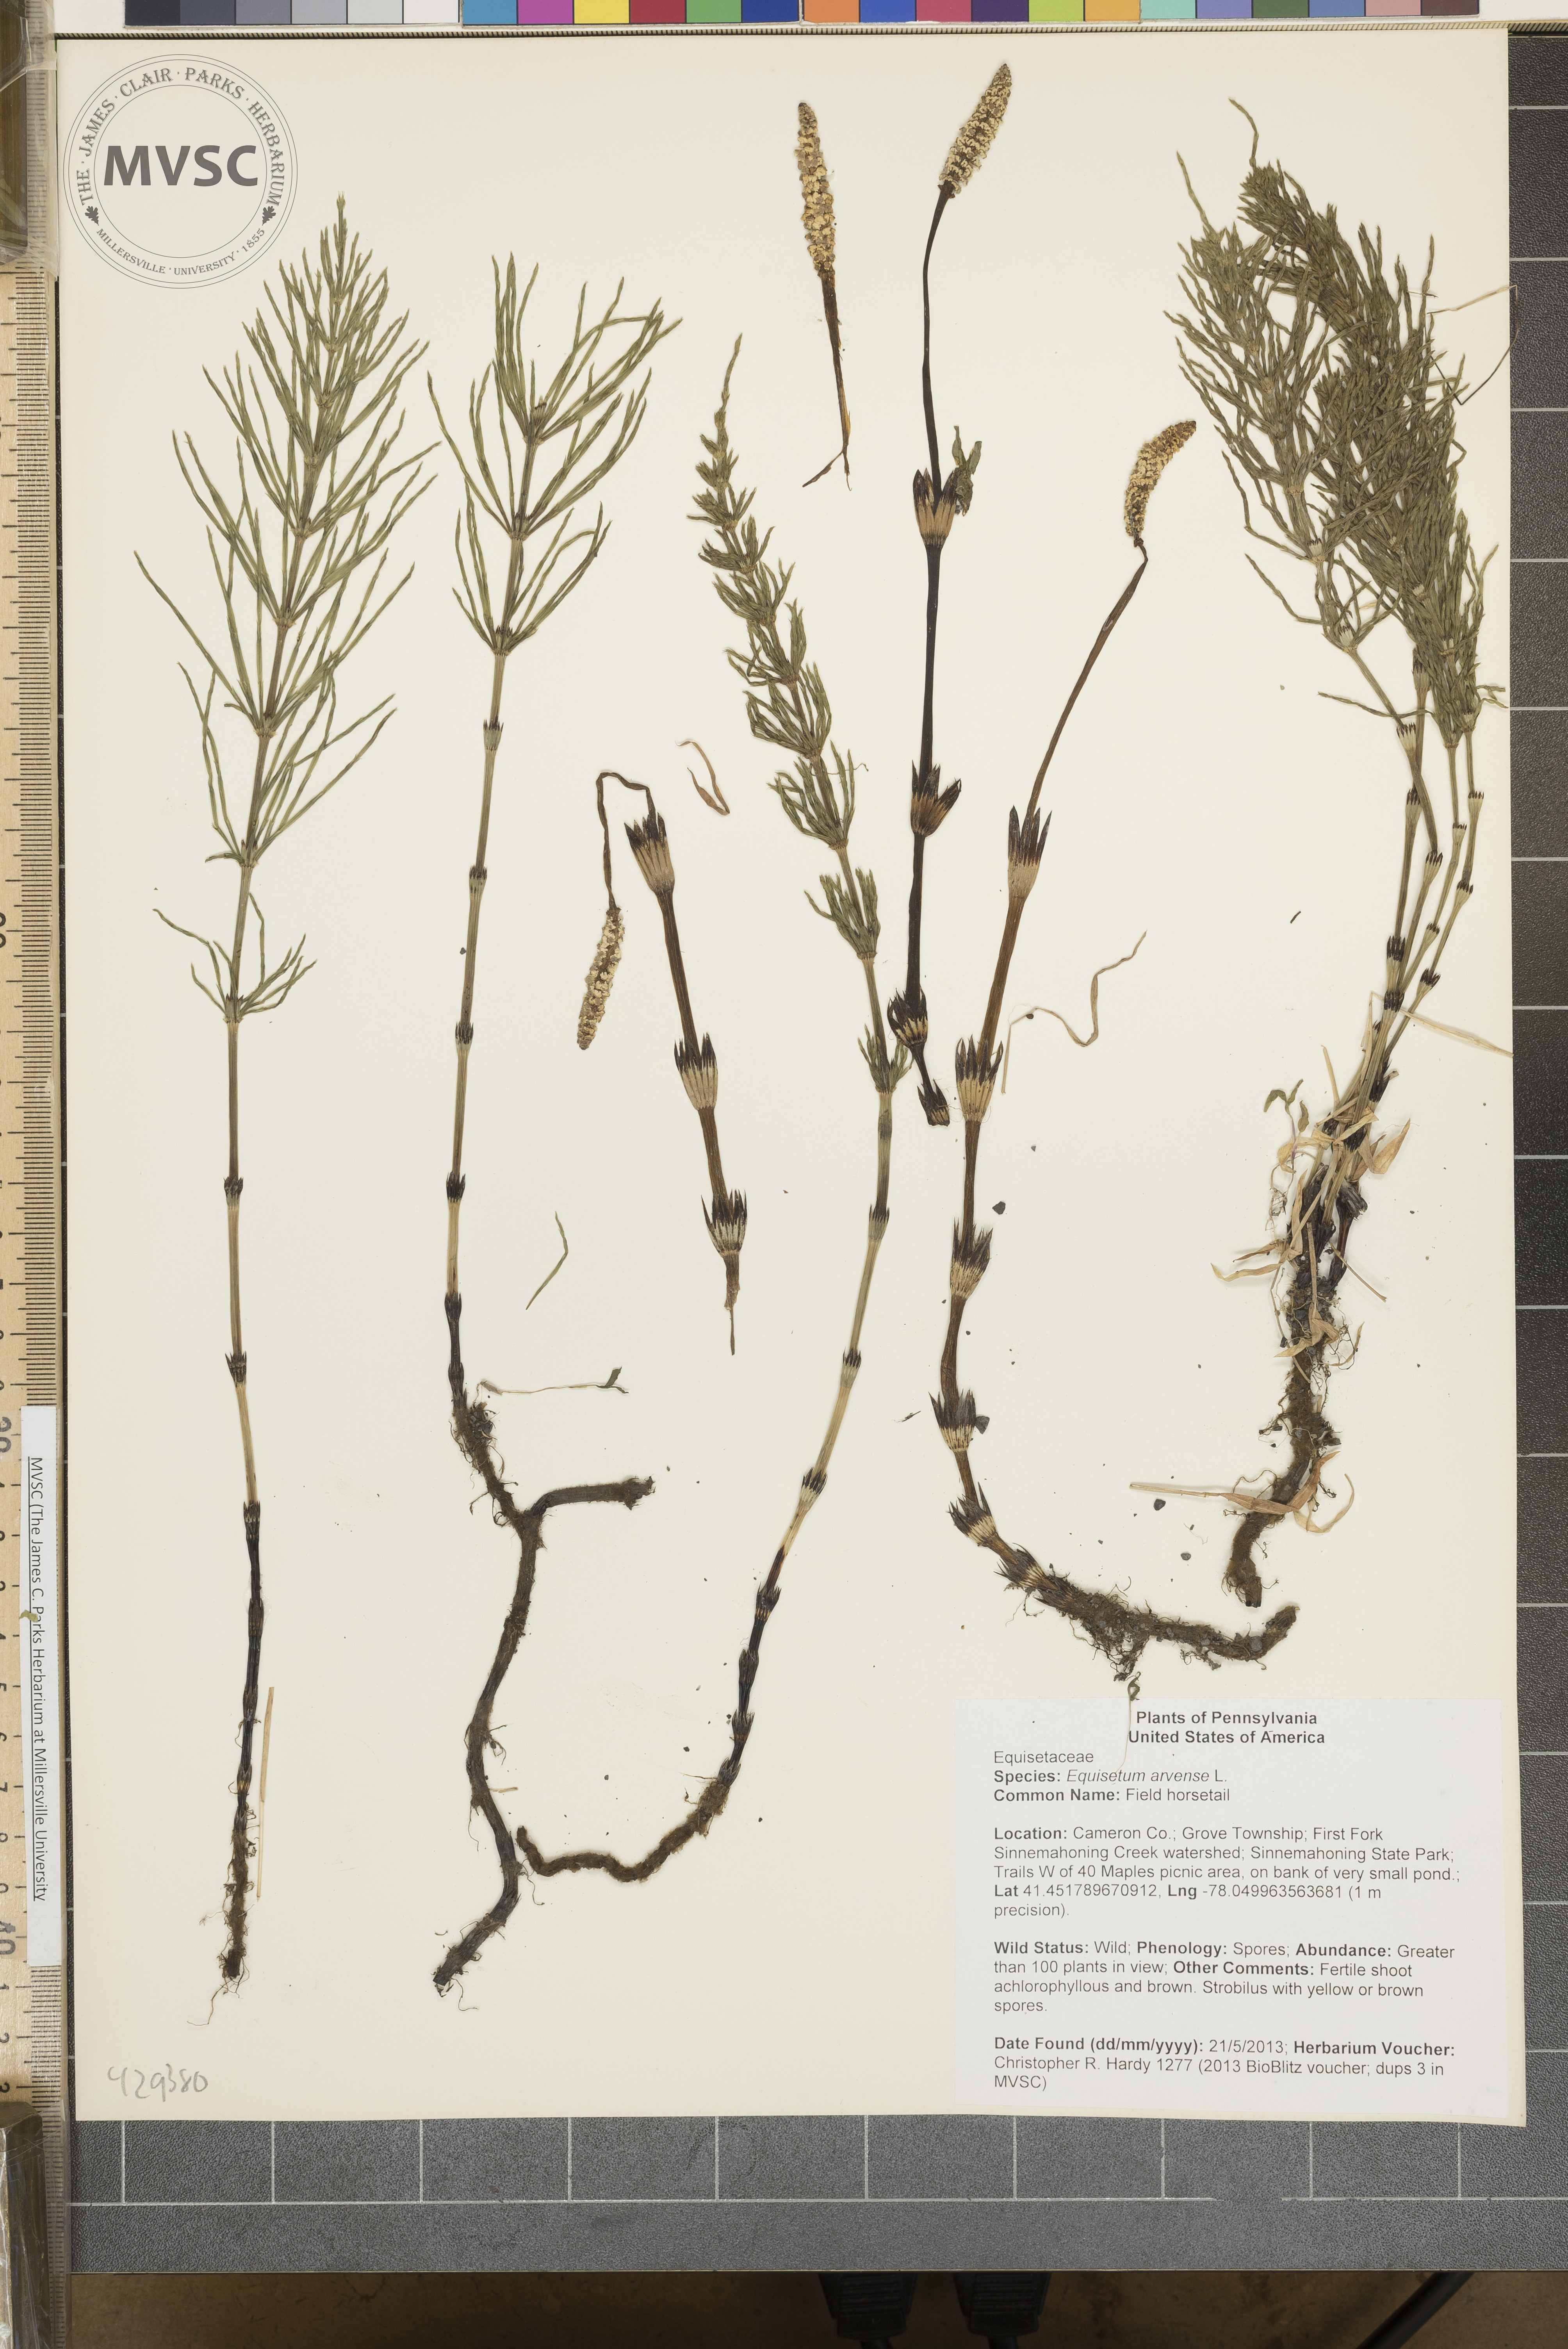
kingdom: Plantae
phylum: Tracheophyta
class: Polypodiopsida
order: Equisetales
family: Equisetaceae
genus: Equisetum
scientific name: Equisetum arvense
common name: Field horsetail
